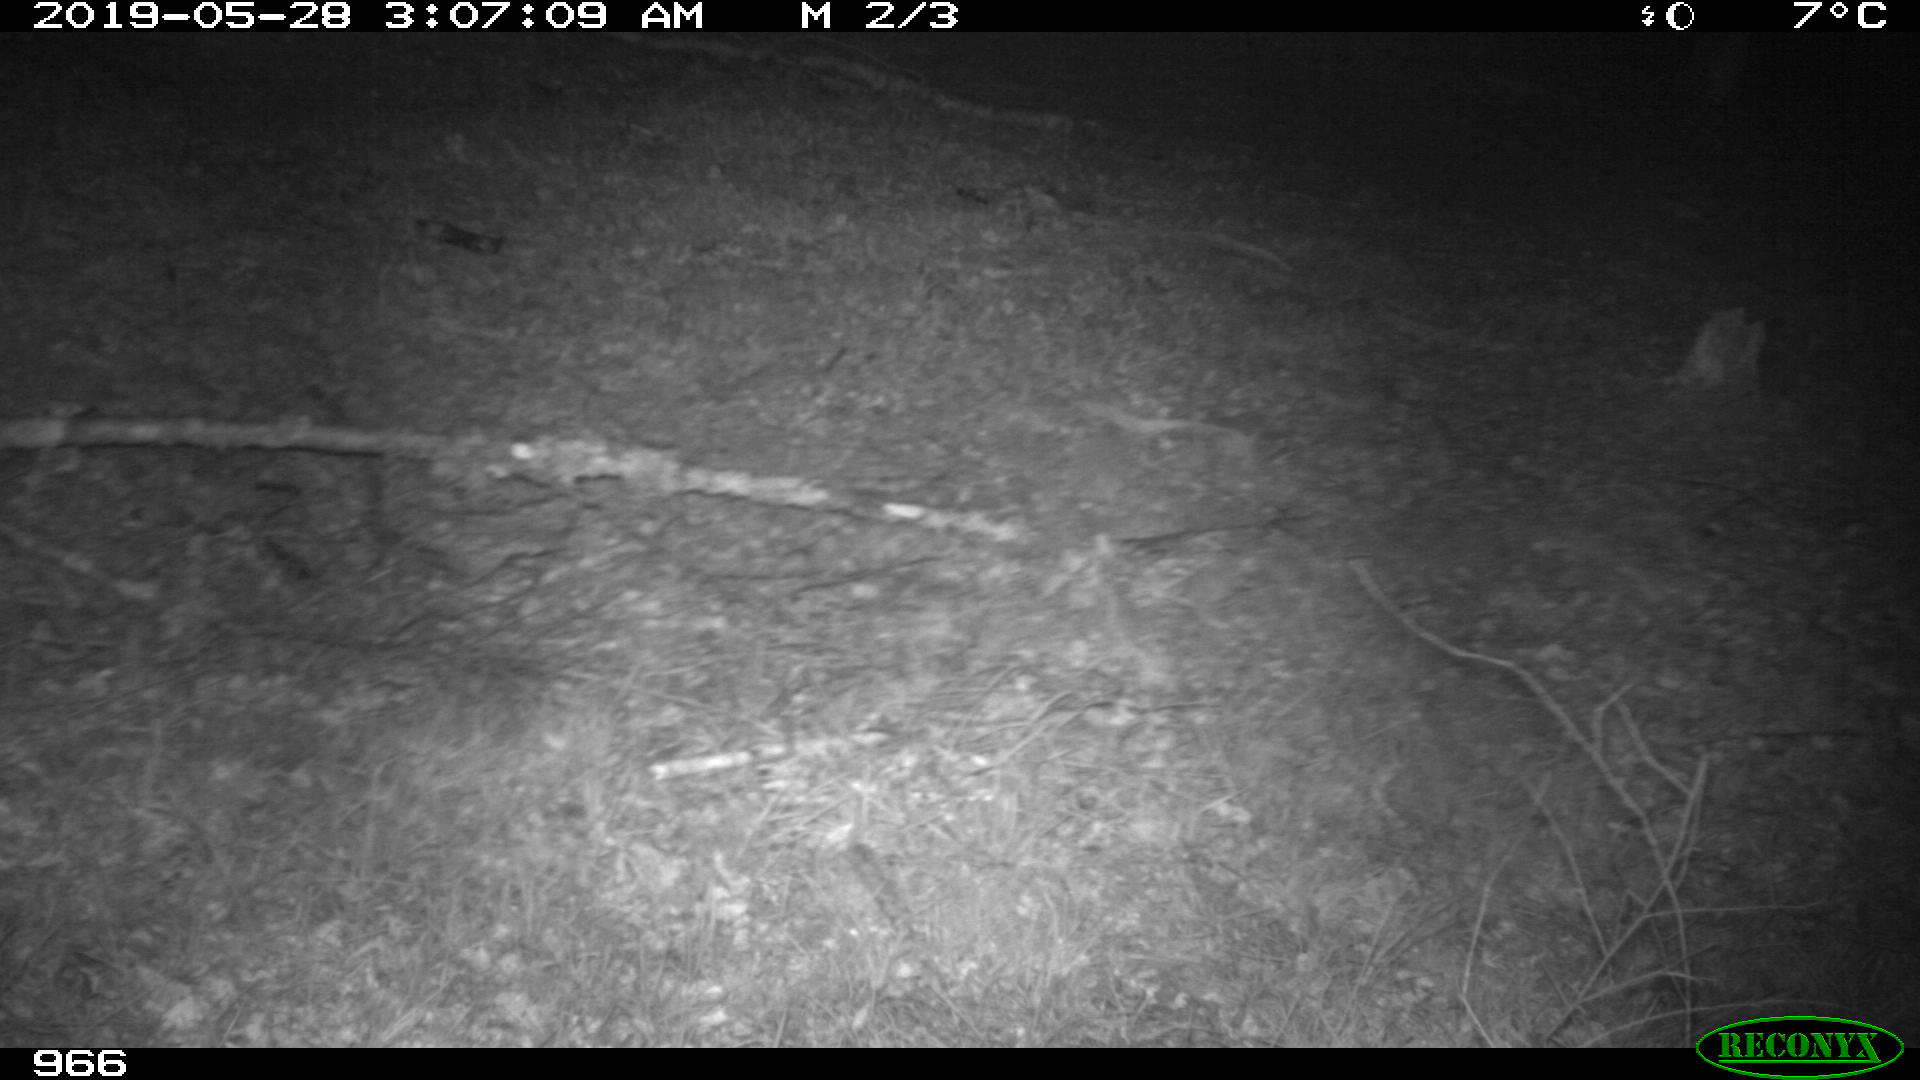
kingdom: Animalia
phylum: Chordata
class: Mammalia
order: Perissodactyla
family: Equidae
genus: Equus
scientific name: Equus caballus
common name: Horse
